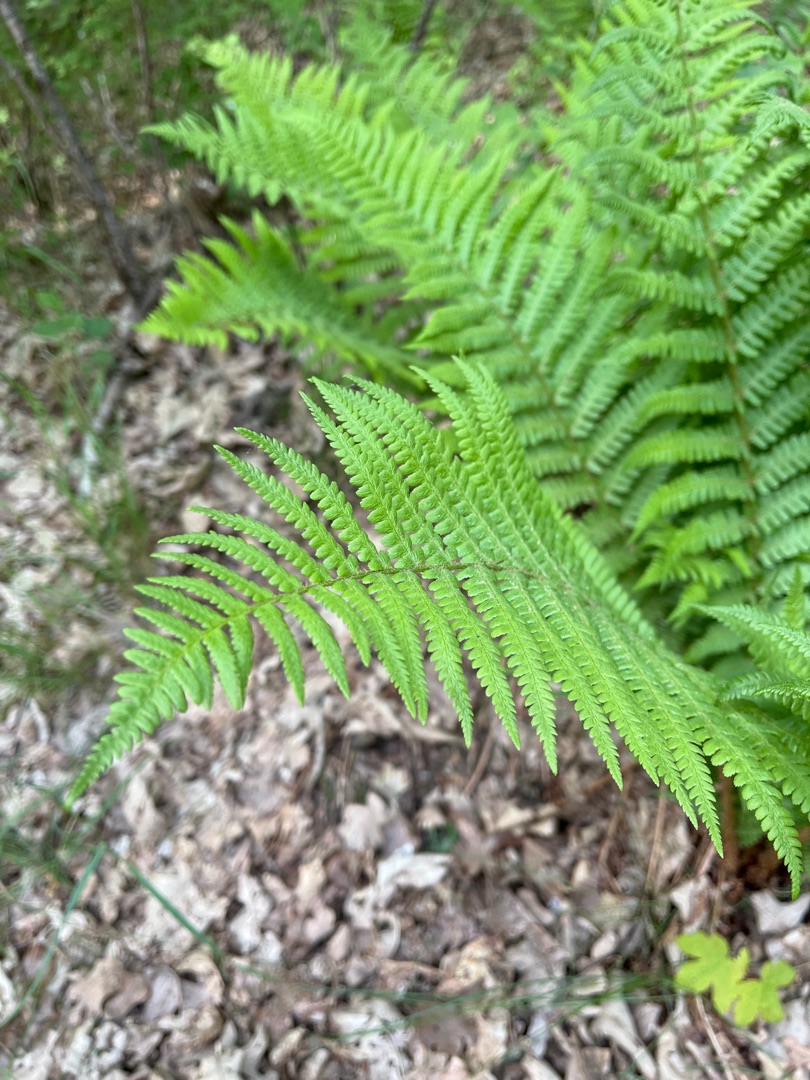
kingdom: Plantae
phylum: Tracheophyta
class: Polypodiopsida
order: Polypodiales
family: Dryopteridaceae
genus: Dryopteris
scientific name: Dryopteris filix-mas
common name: Almindelig mangeløv
